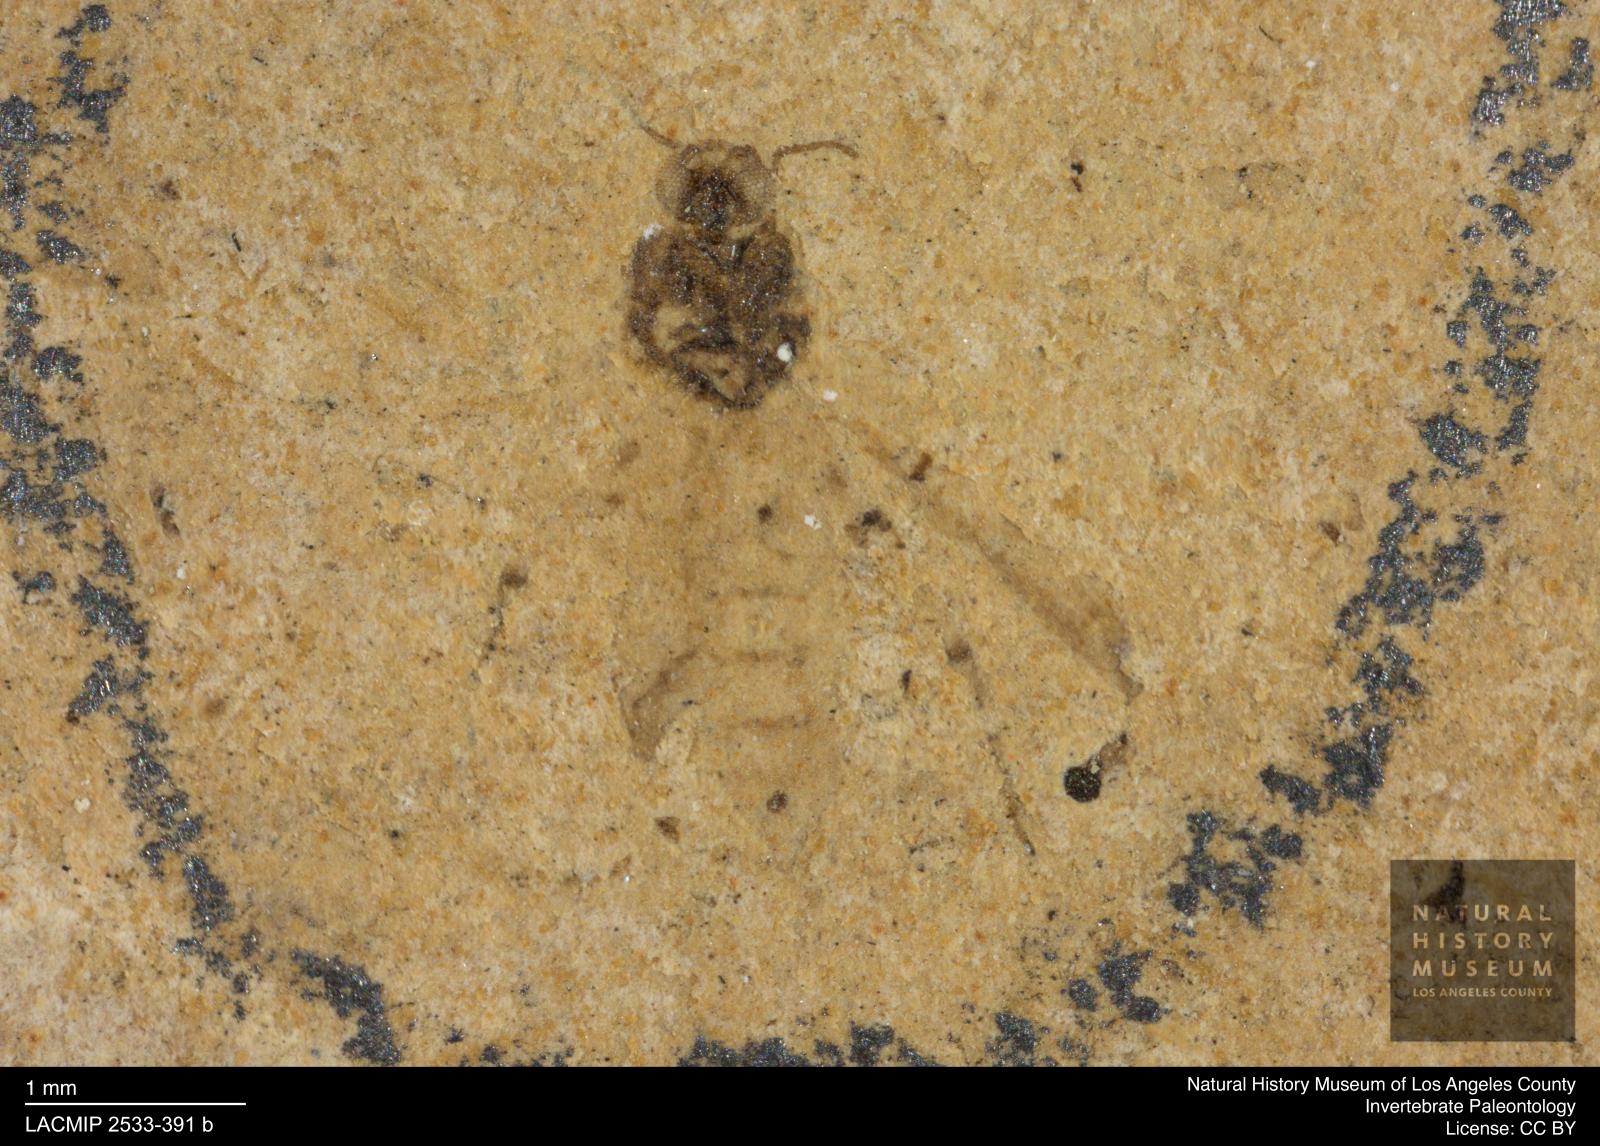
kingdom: Animalia
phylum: Arthropoda
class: Insecta
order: Diptera
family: Ceratopogonidae
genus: Culicoides
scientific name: Culicoides obscuratus
